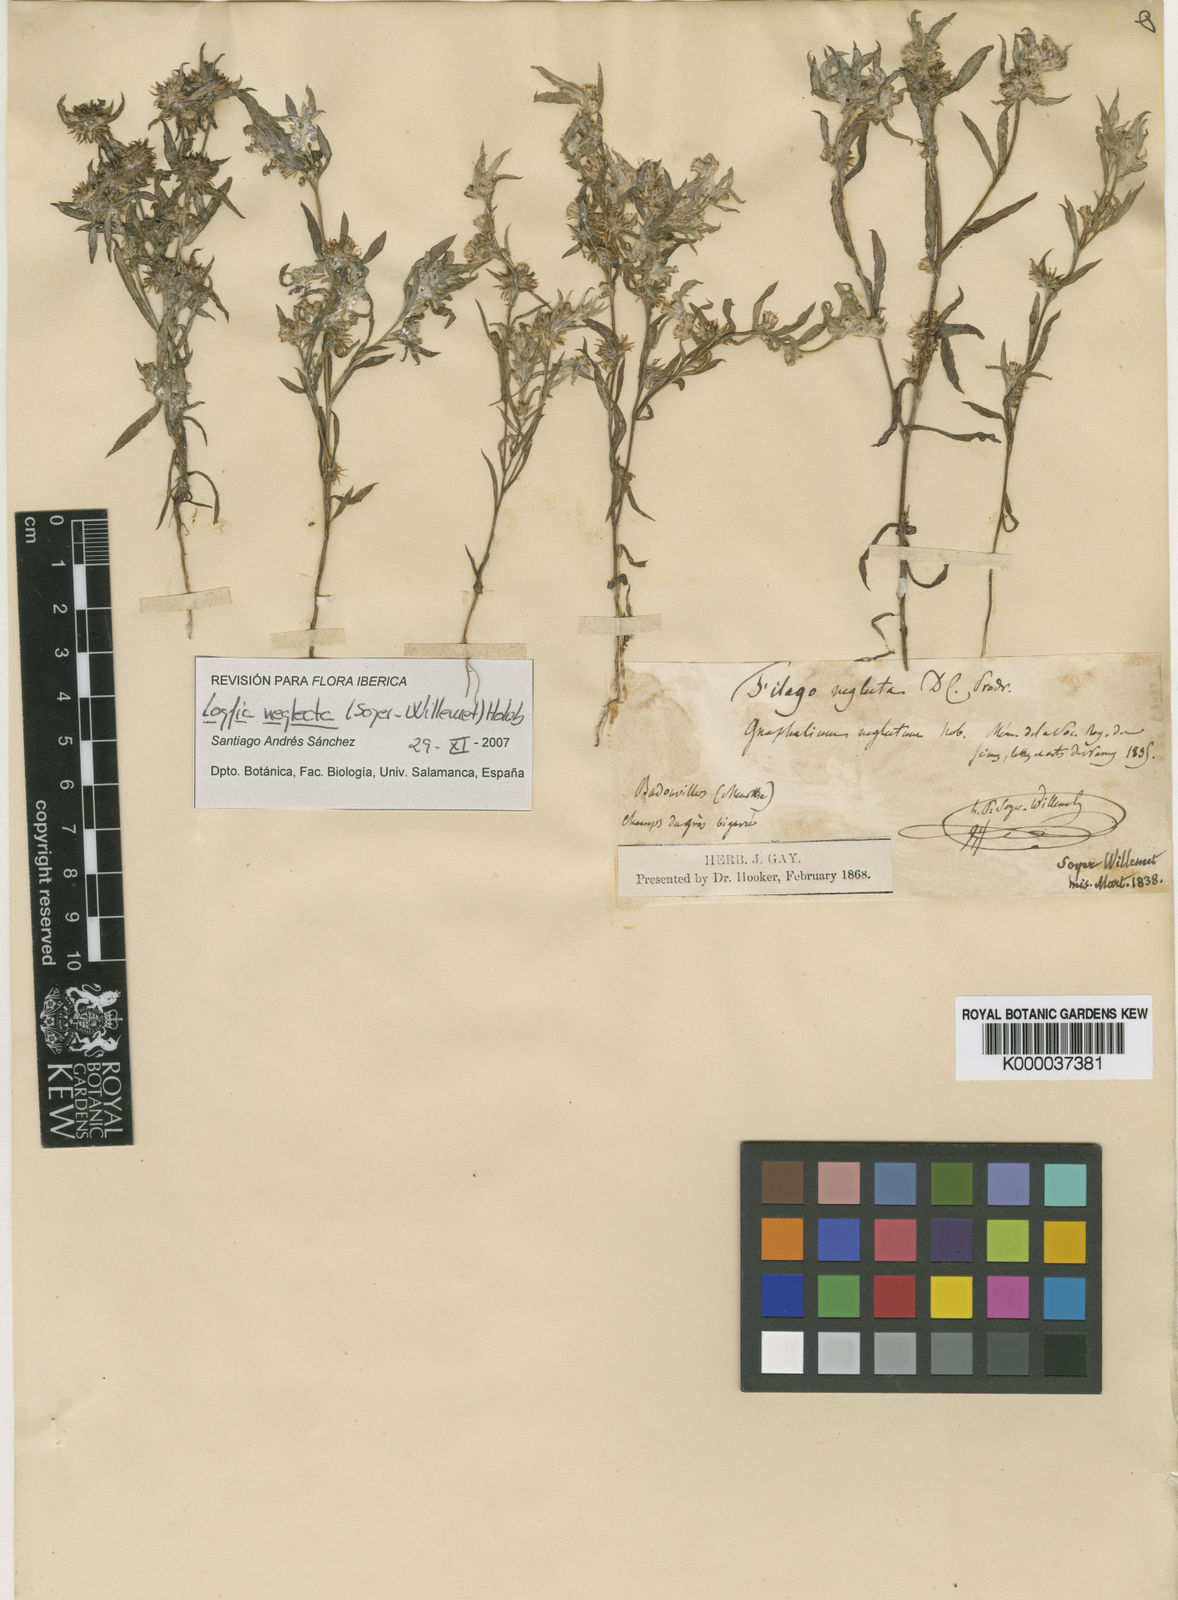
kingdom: Plantae
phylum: Tracheophyta
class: Magnoliopsida
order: Asterales
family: Asteraceae
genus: Logfia
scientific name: Logfia neglecta
